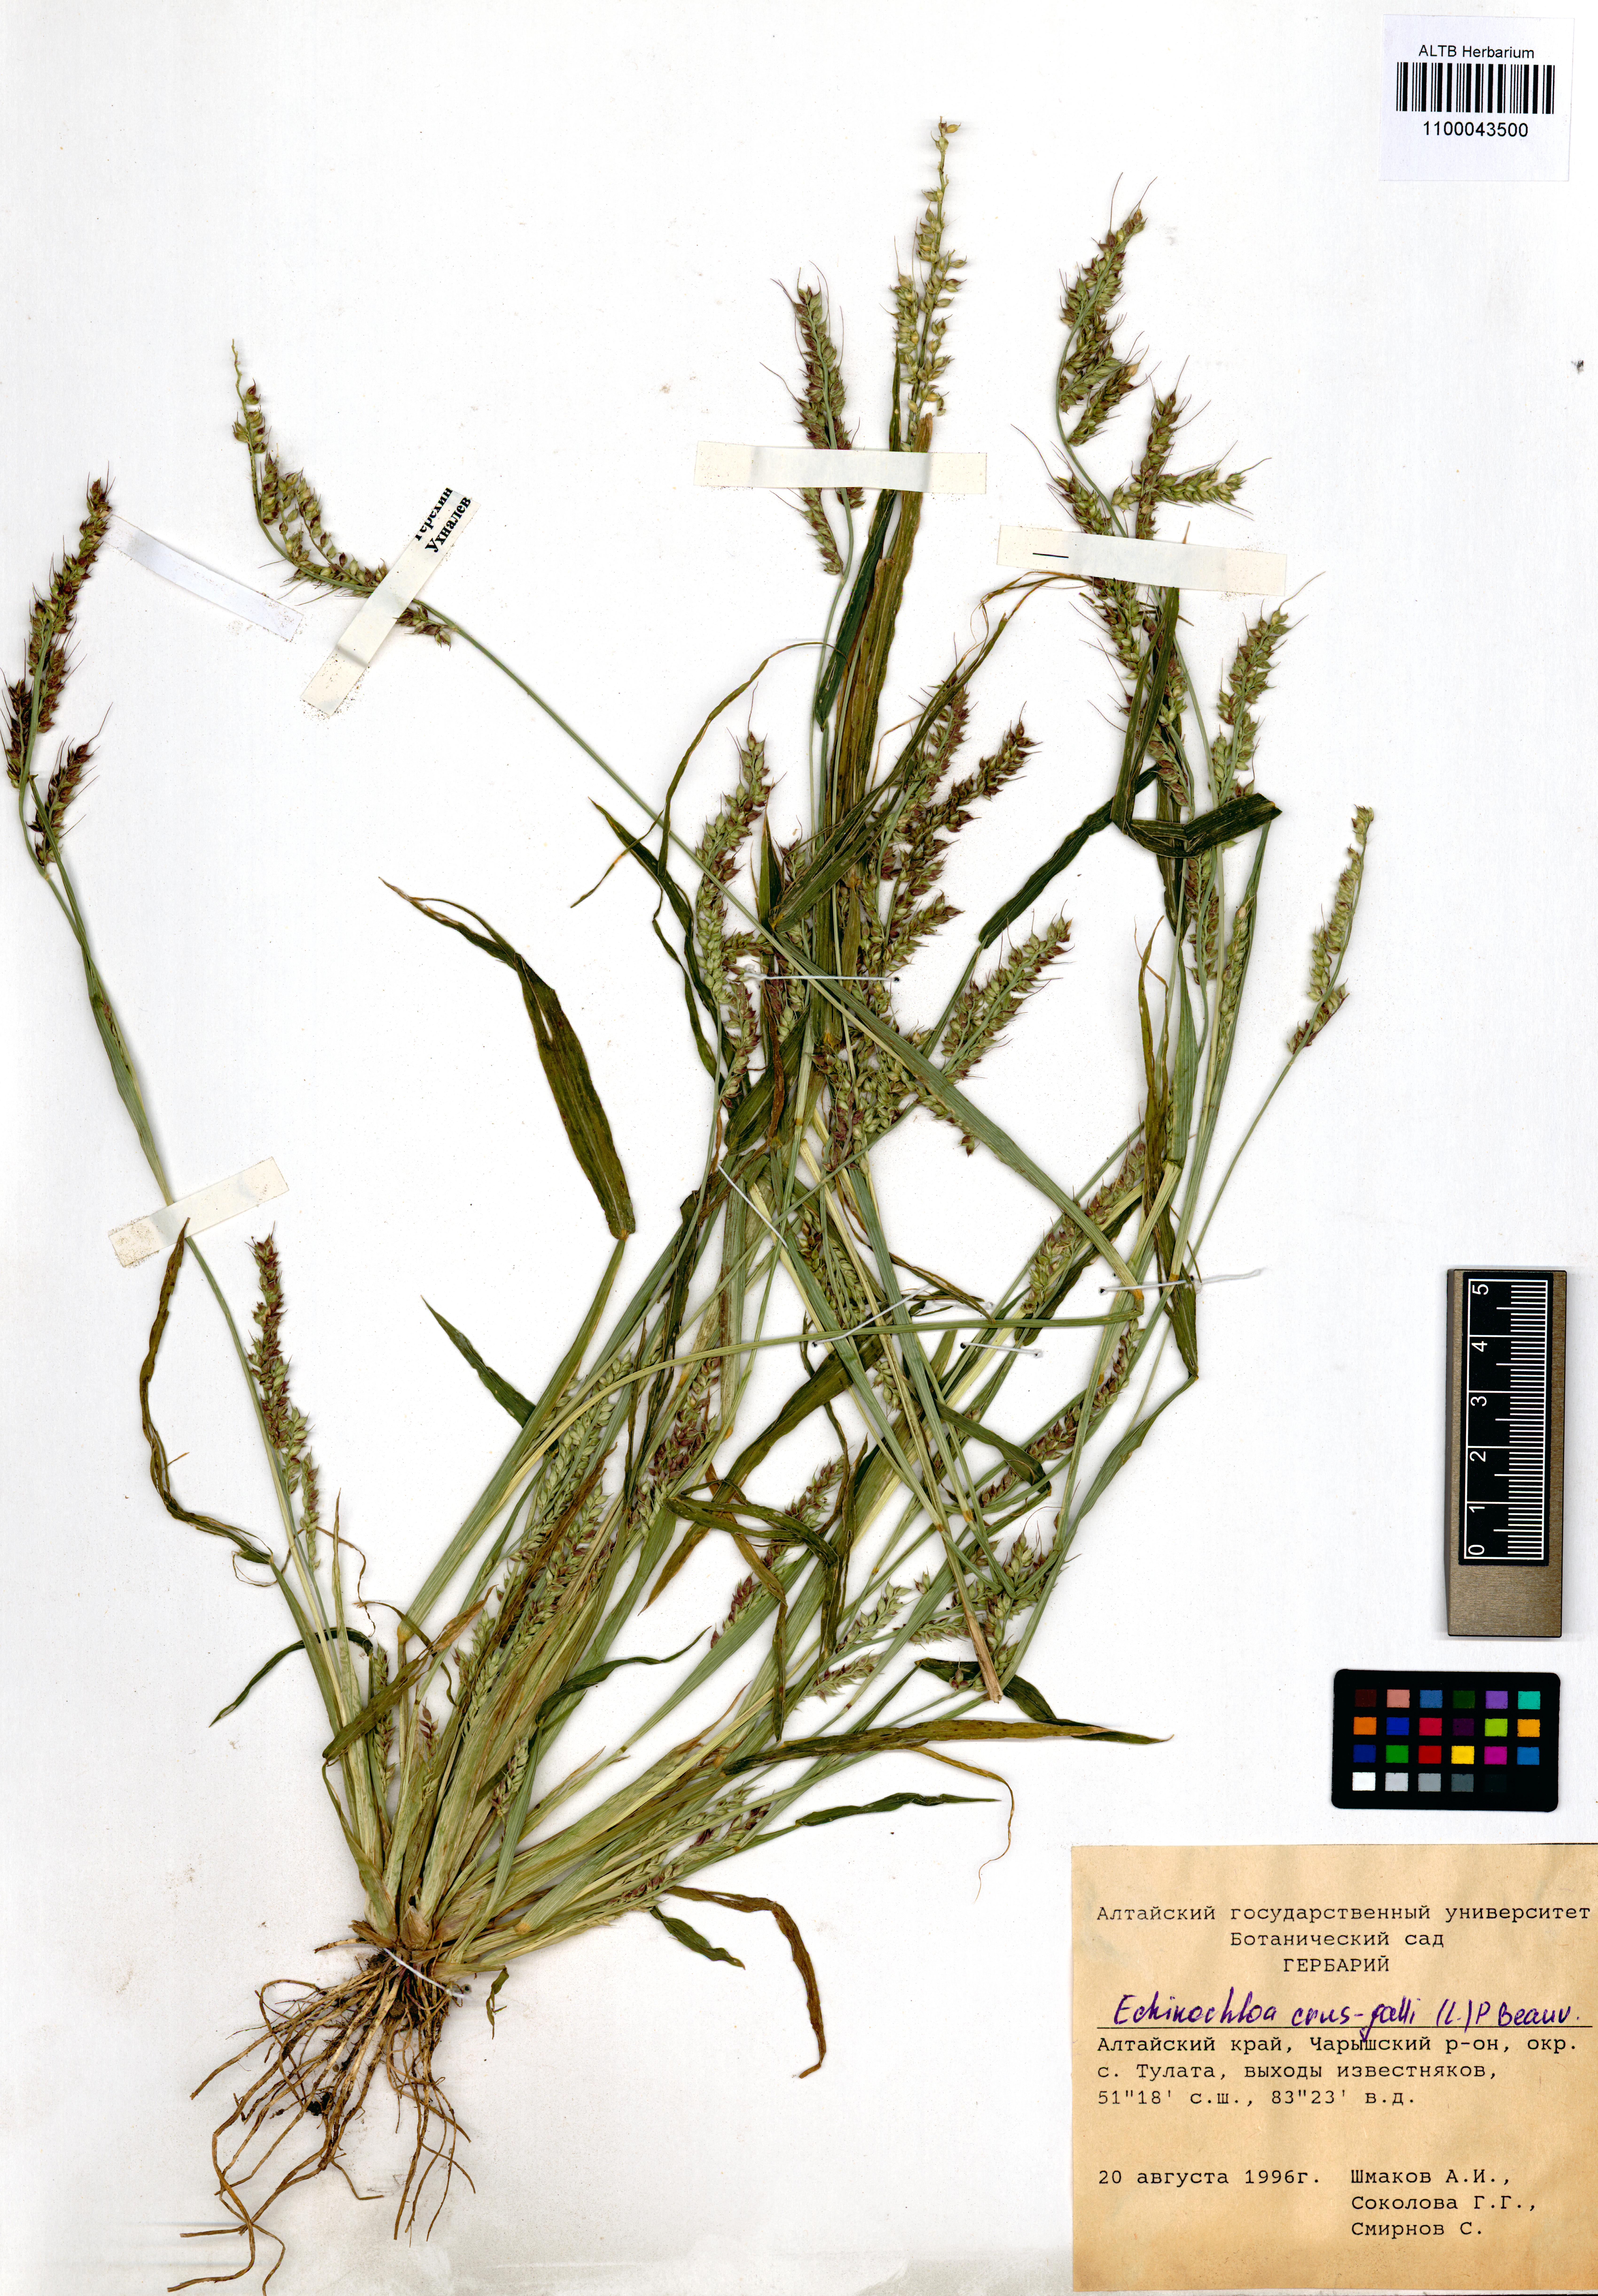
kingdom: Plantae
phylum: Tracheophyta
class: Liliopsida
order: Poales
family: Poaceae
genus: Echinochloa
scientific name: Echinochloa crus-galli
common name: Cockspur
